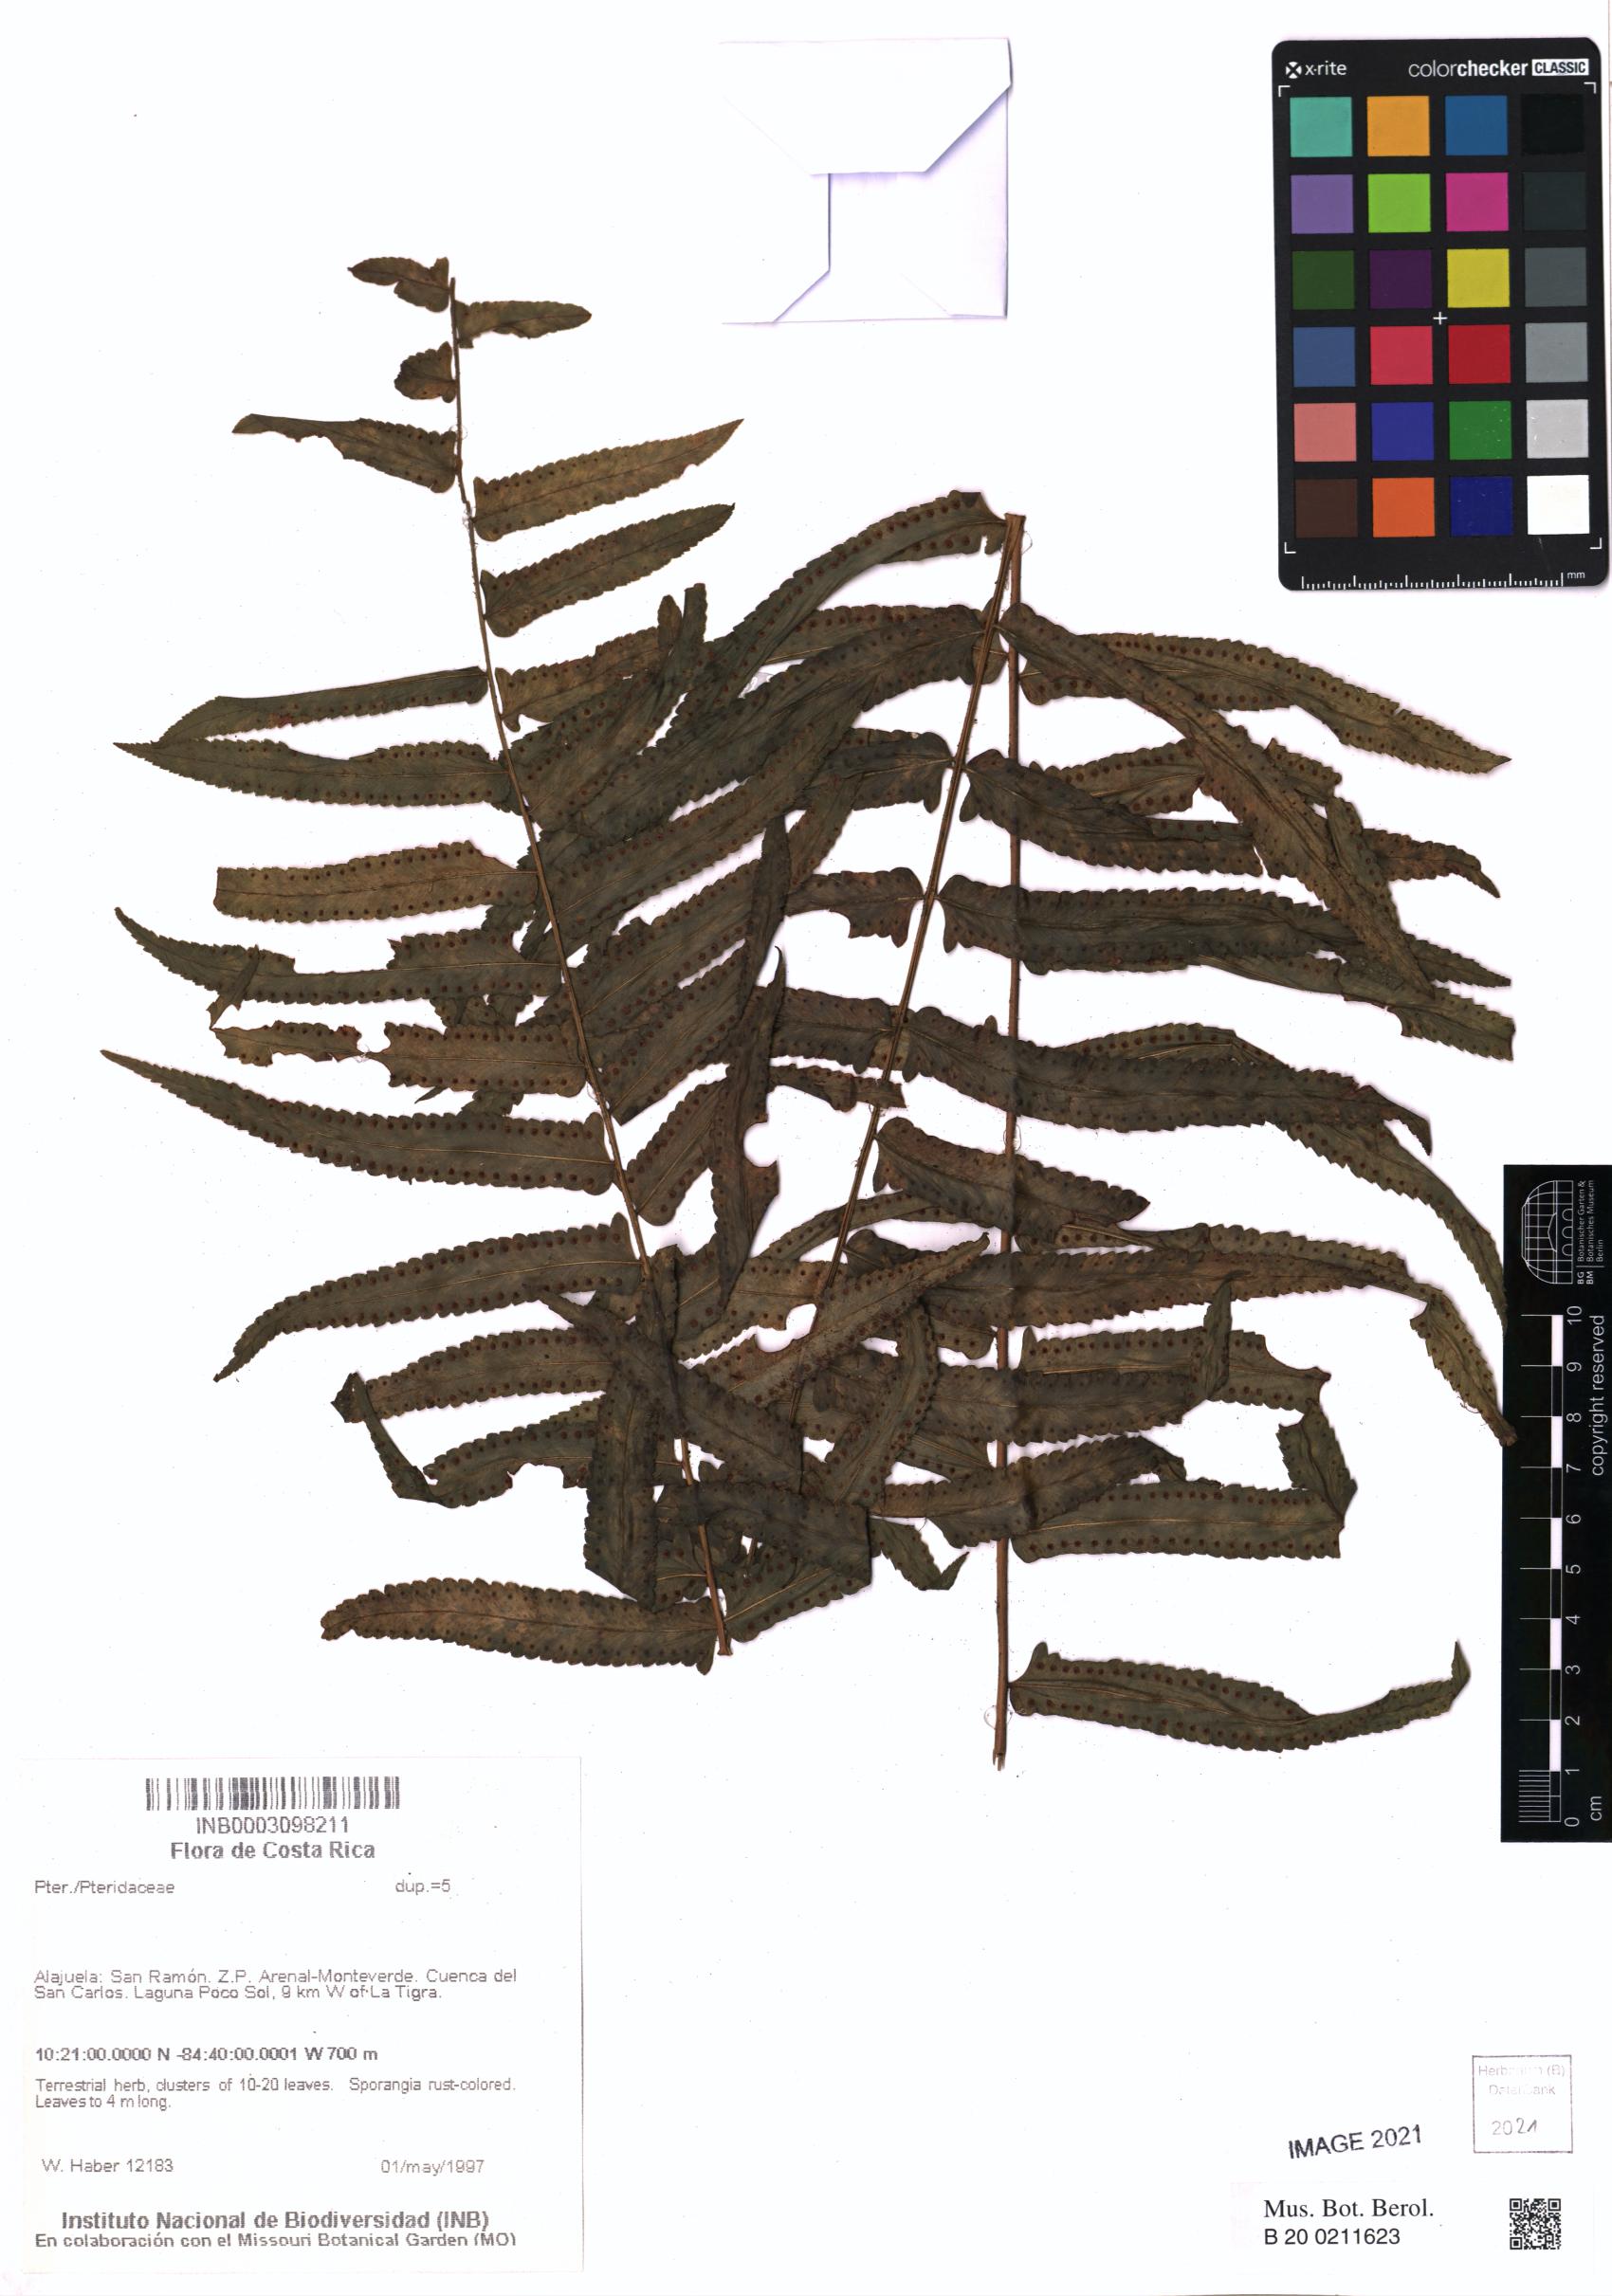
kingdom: Plantae
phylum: Tracheophyta
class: Polypodiopsida
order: Polypodiales
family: Pteridaceae
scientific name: Pteridaceae
